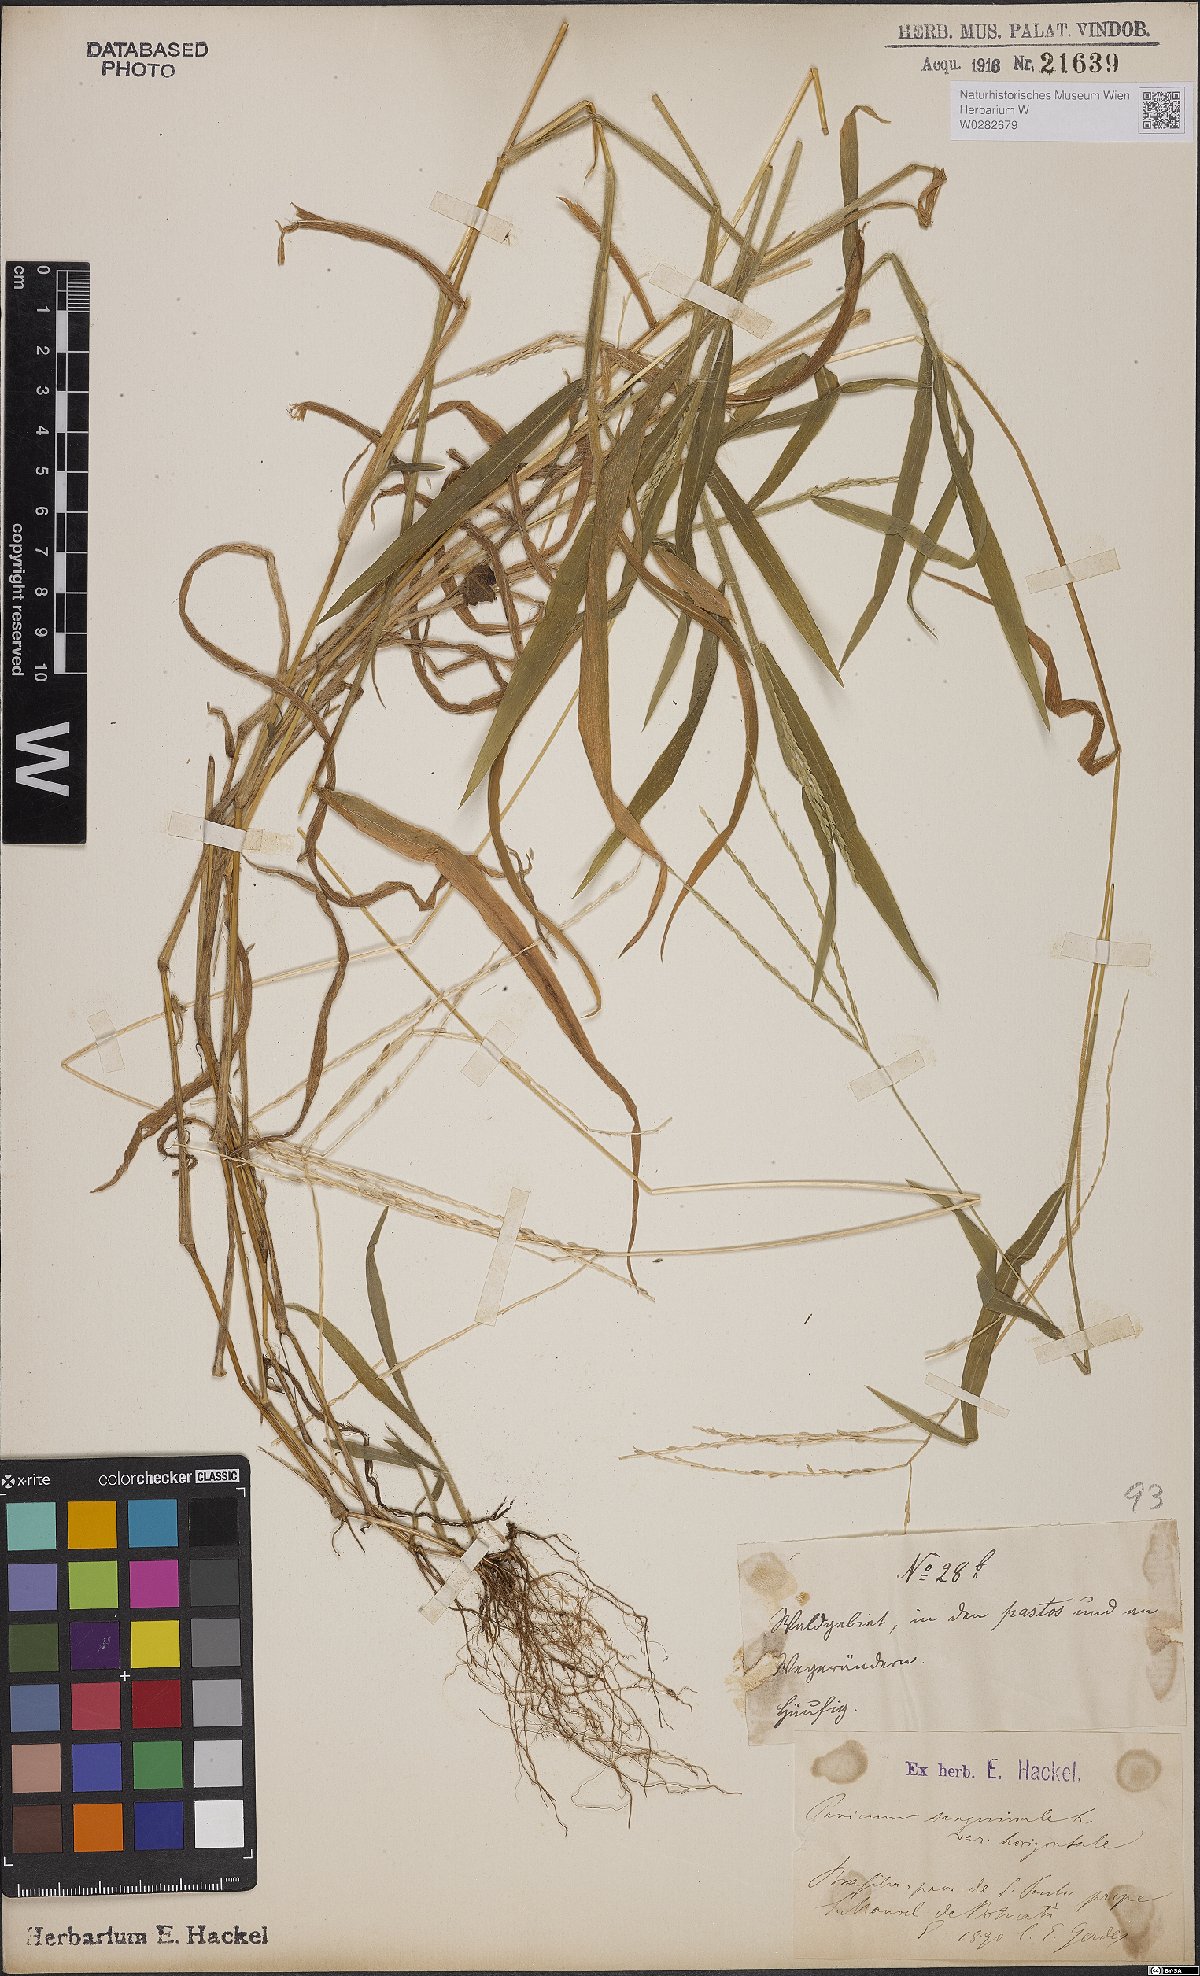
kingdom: Plantae
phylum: Tracheophyta
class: Liliopsida
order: Poales
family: Poaceae
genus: Digitaria
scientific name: Digitaria horizontalis
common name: Jamaican crabgrass
